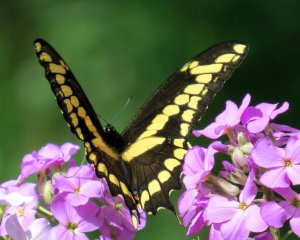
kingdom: Animalia
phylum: Arthropoda
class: Insecta
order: Lepidoptera
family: Papilionidae
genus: Papilio
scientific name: Papilio cresphontes
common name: Eastern Giant Swallowtail
